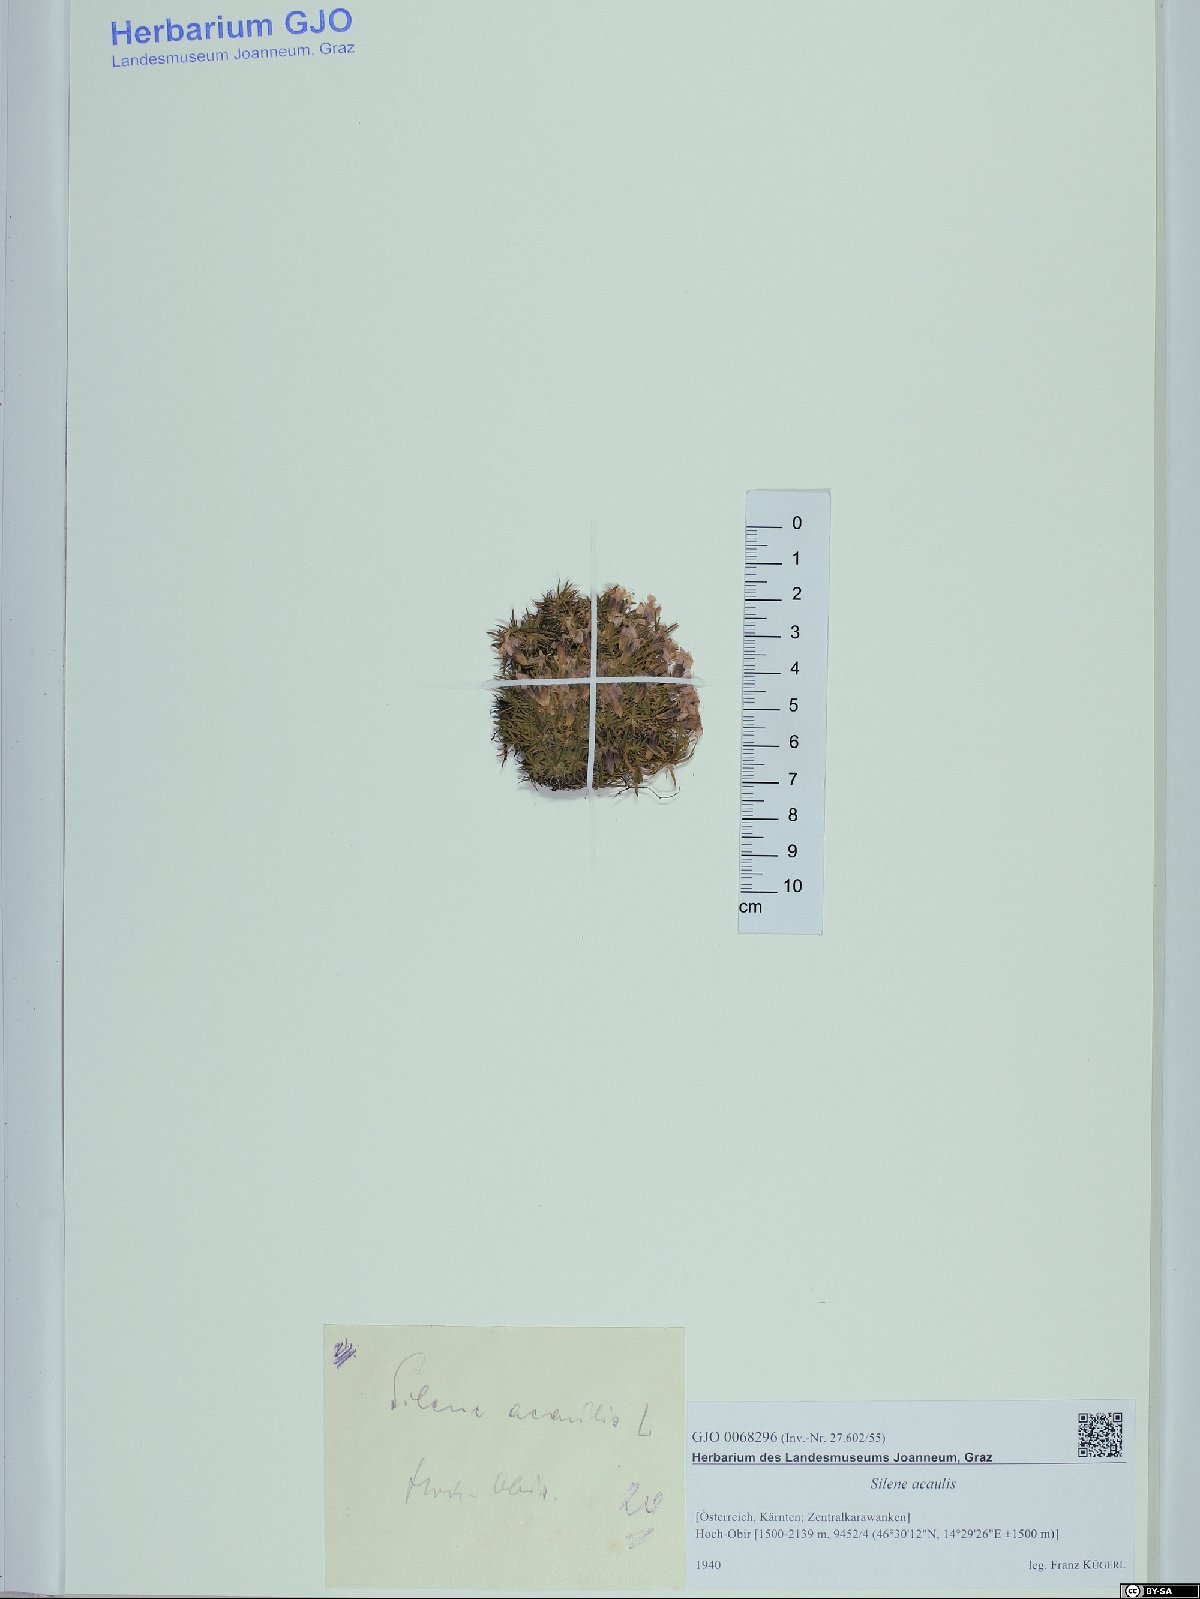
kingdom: Plantae
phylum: Tracheophyta
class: Magnoliopsida
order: Caryophyllales
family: Caryophyllaceae
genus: Silene
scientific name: Silene acaulis
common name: Moss campion
